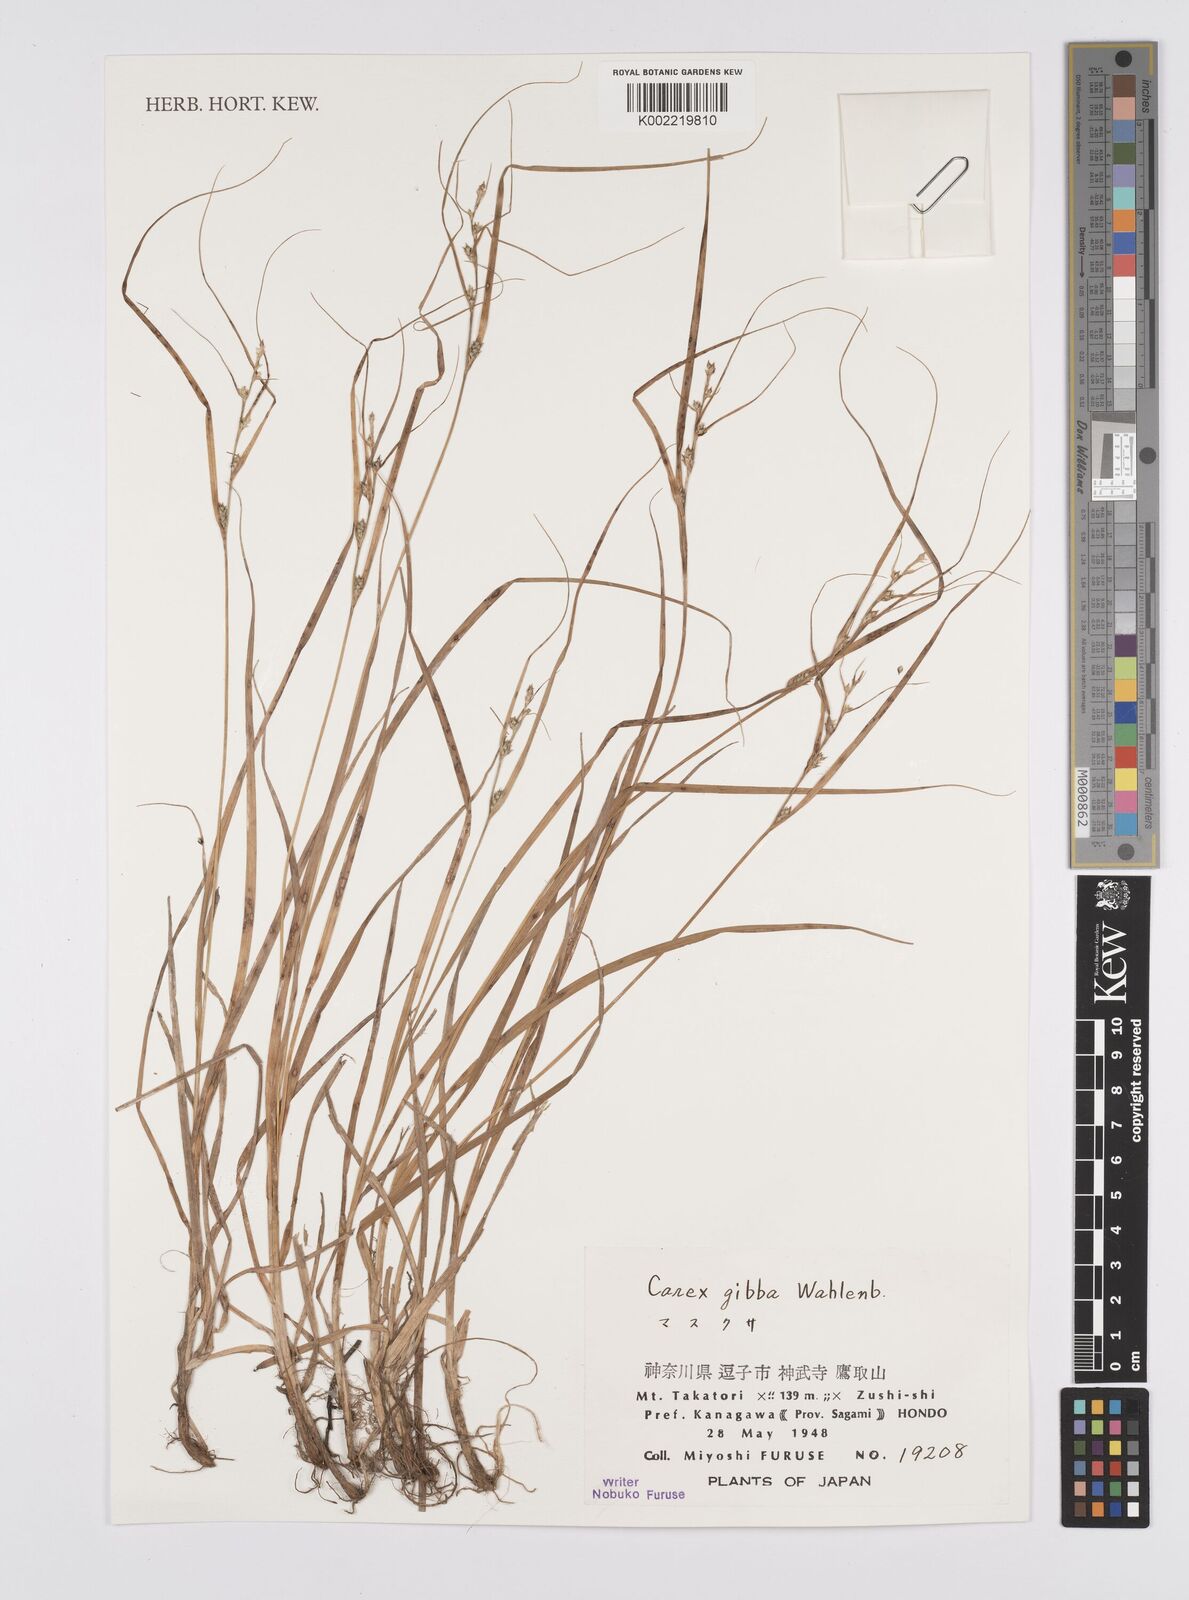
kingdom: Plantae
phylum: Tracheophyta
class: Liliopsida
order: Poales
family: Cyperaceae
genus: Carex
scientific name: Carex gibba
